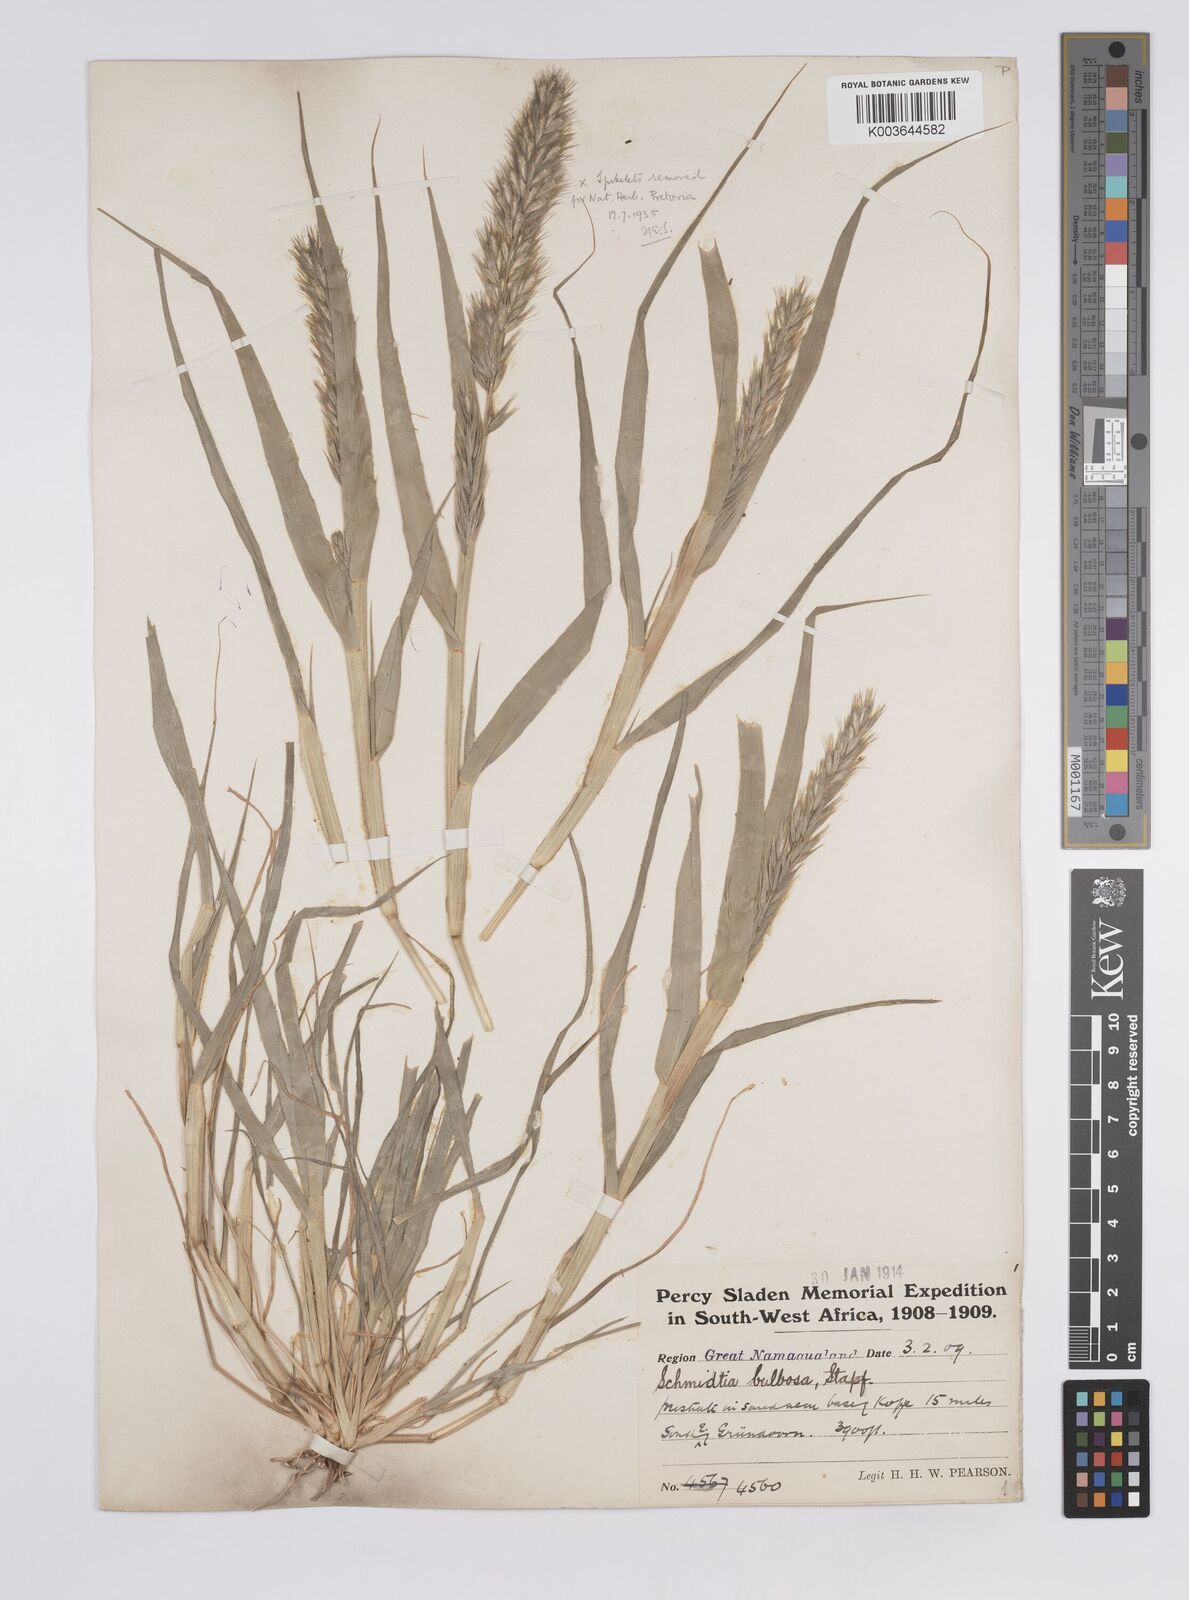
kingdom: Plantae
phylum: Tracheophyta
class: Liliopsida
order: Poales
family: Poaceae
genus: Schmidtia
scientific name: Schmidtia kalahariensis
